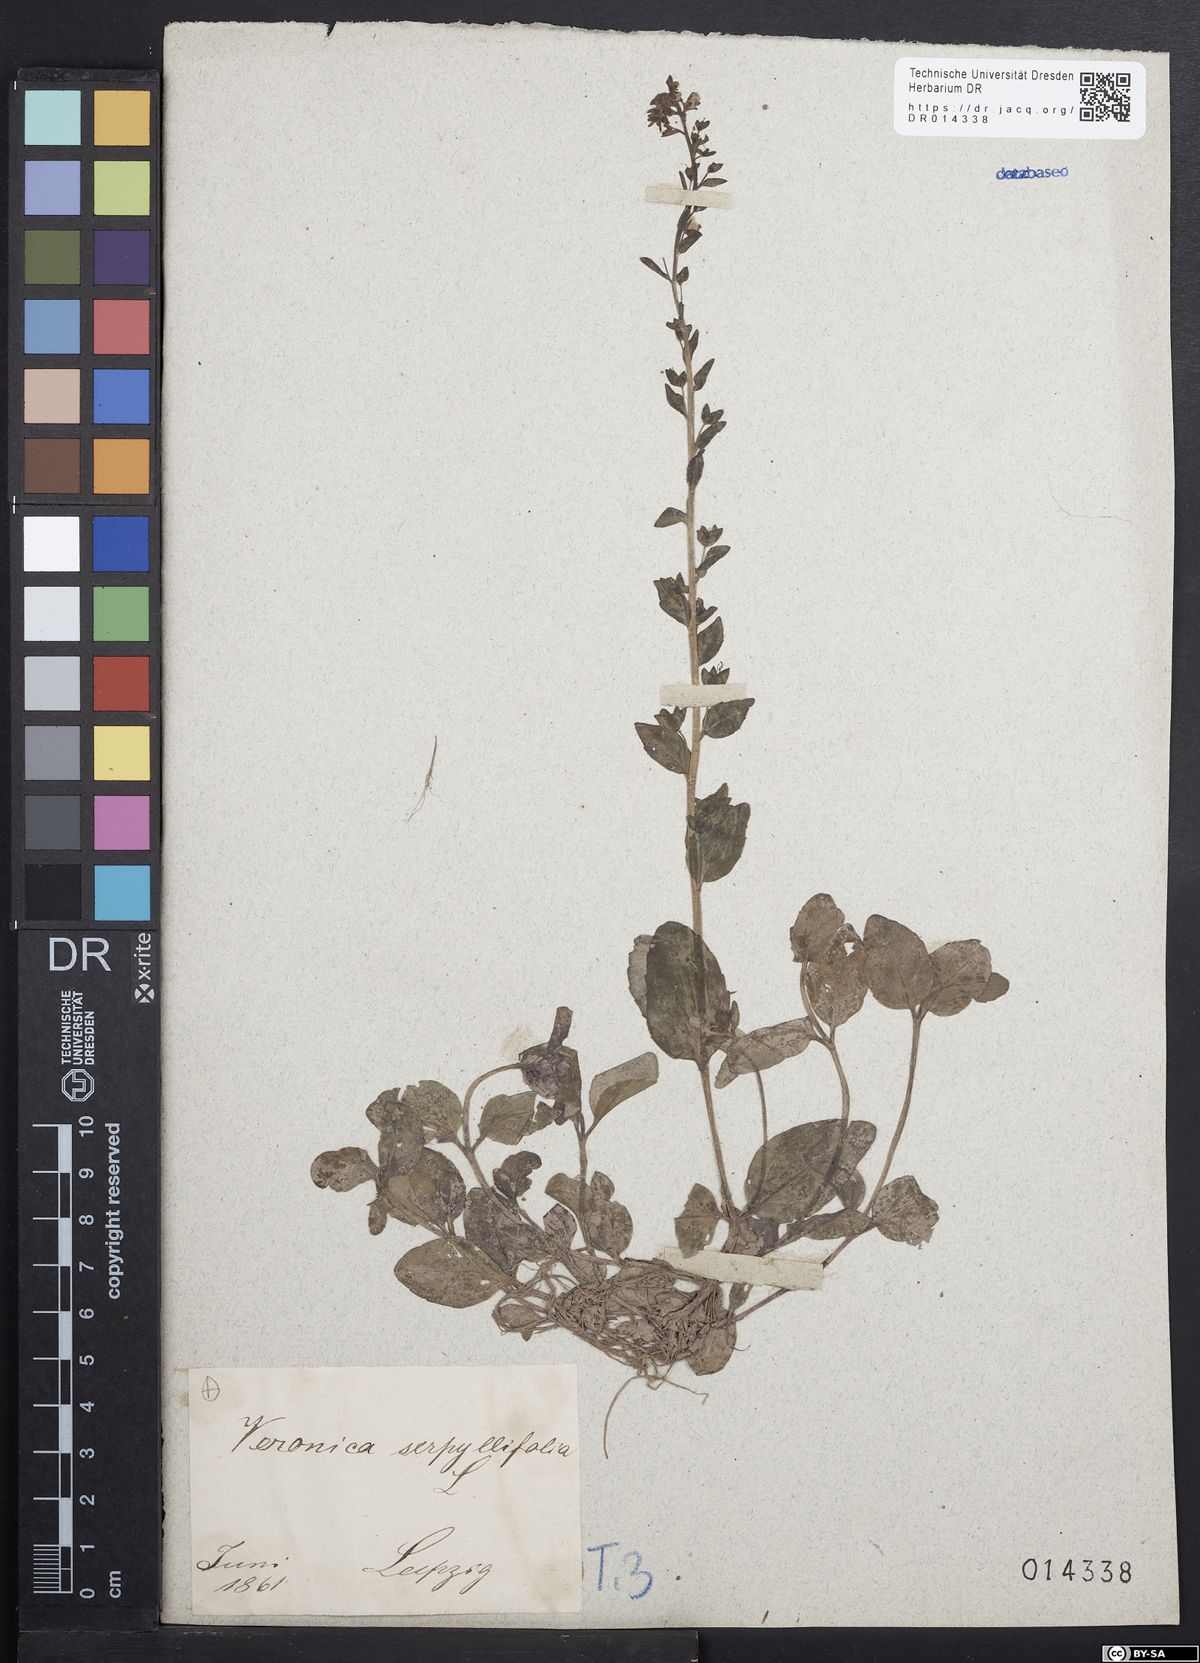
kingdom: Plantae
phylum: Tracheophyta
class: Magnoliopsida
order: Lamiales
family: Plantaginaceae
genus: Veronica
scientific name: Veronica serpyllifolia
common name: Thyme-leaved speedwell
